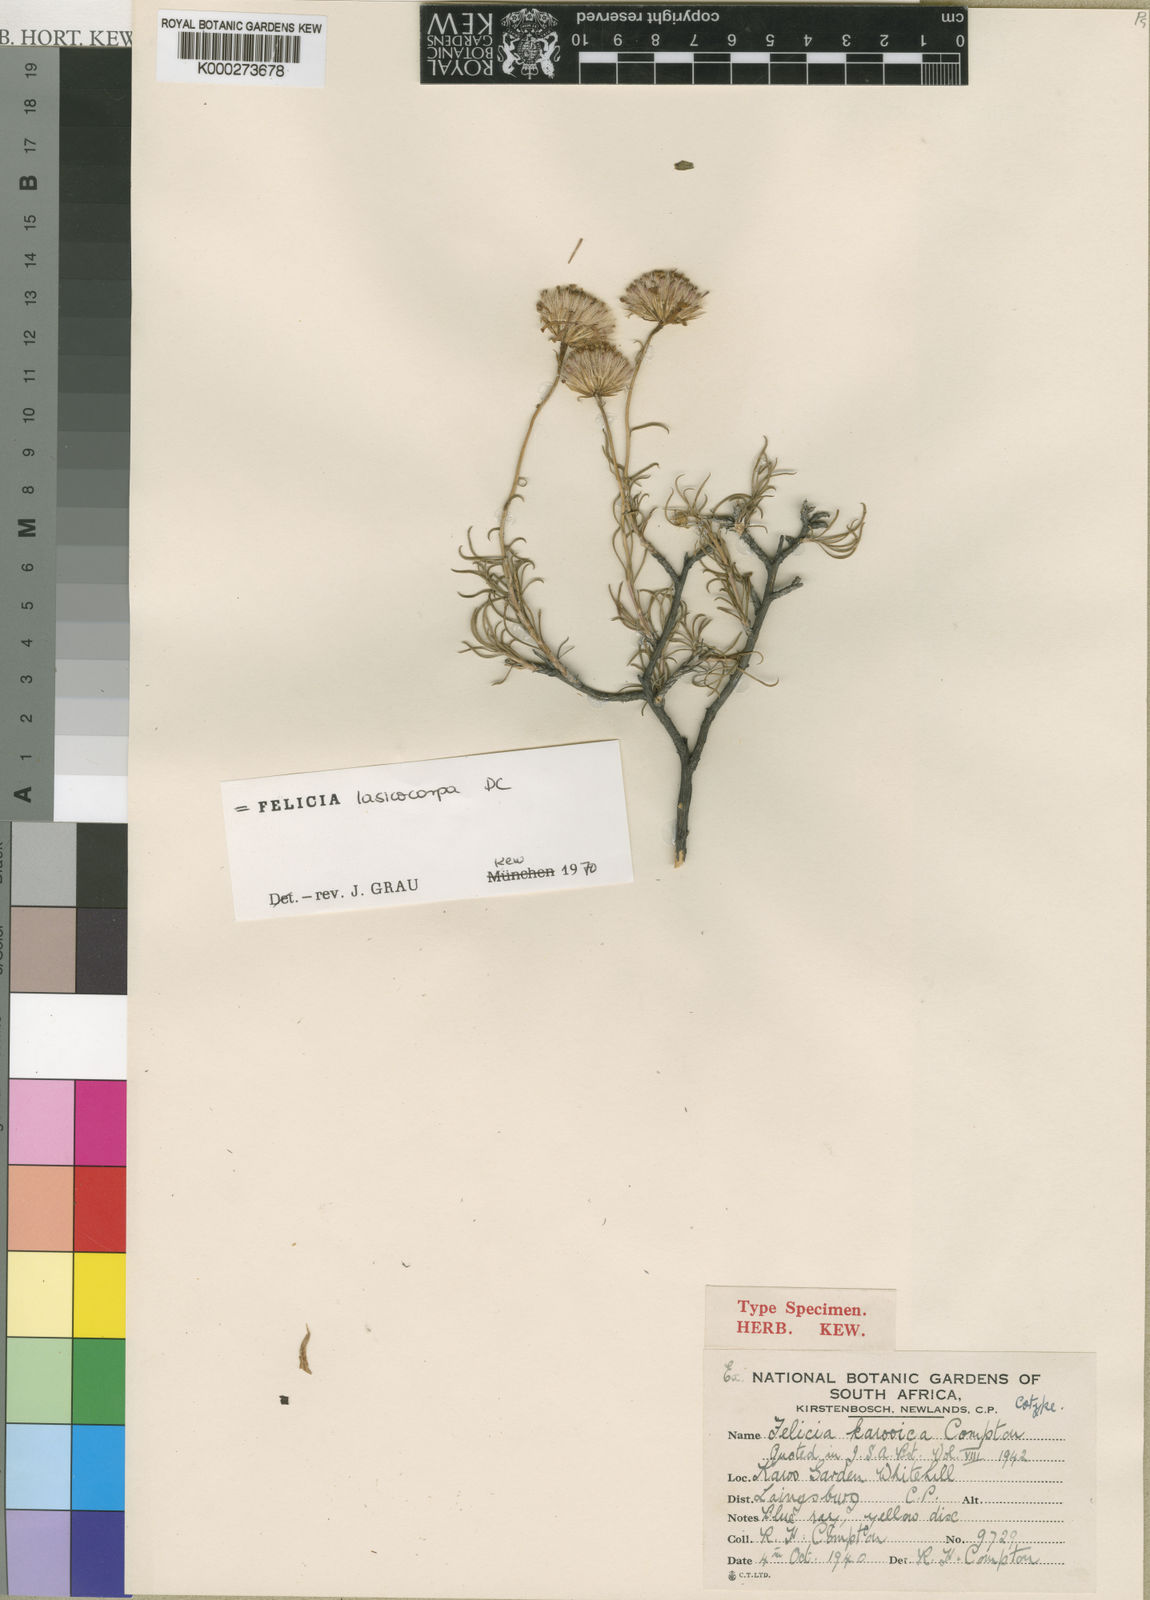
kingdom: Plantae
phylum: Tracheophyta
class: Magnoliopsida
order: Asterales
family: Asteraceae
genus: Zyrphelis
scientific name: Zyrphelis lasiocarpa
